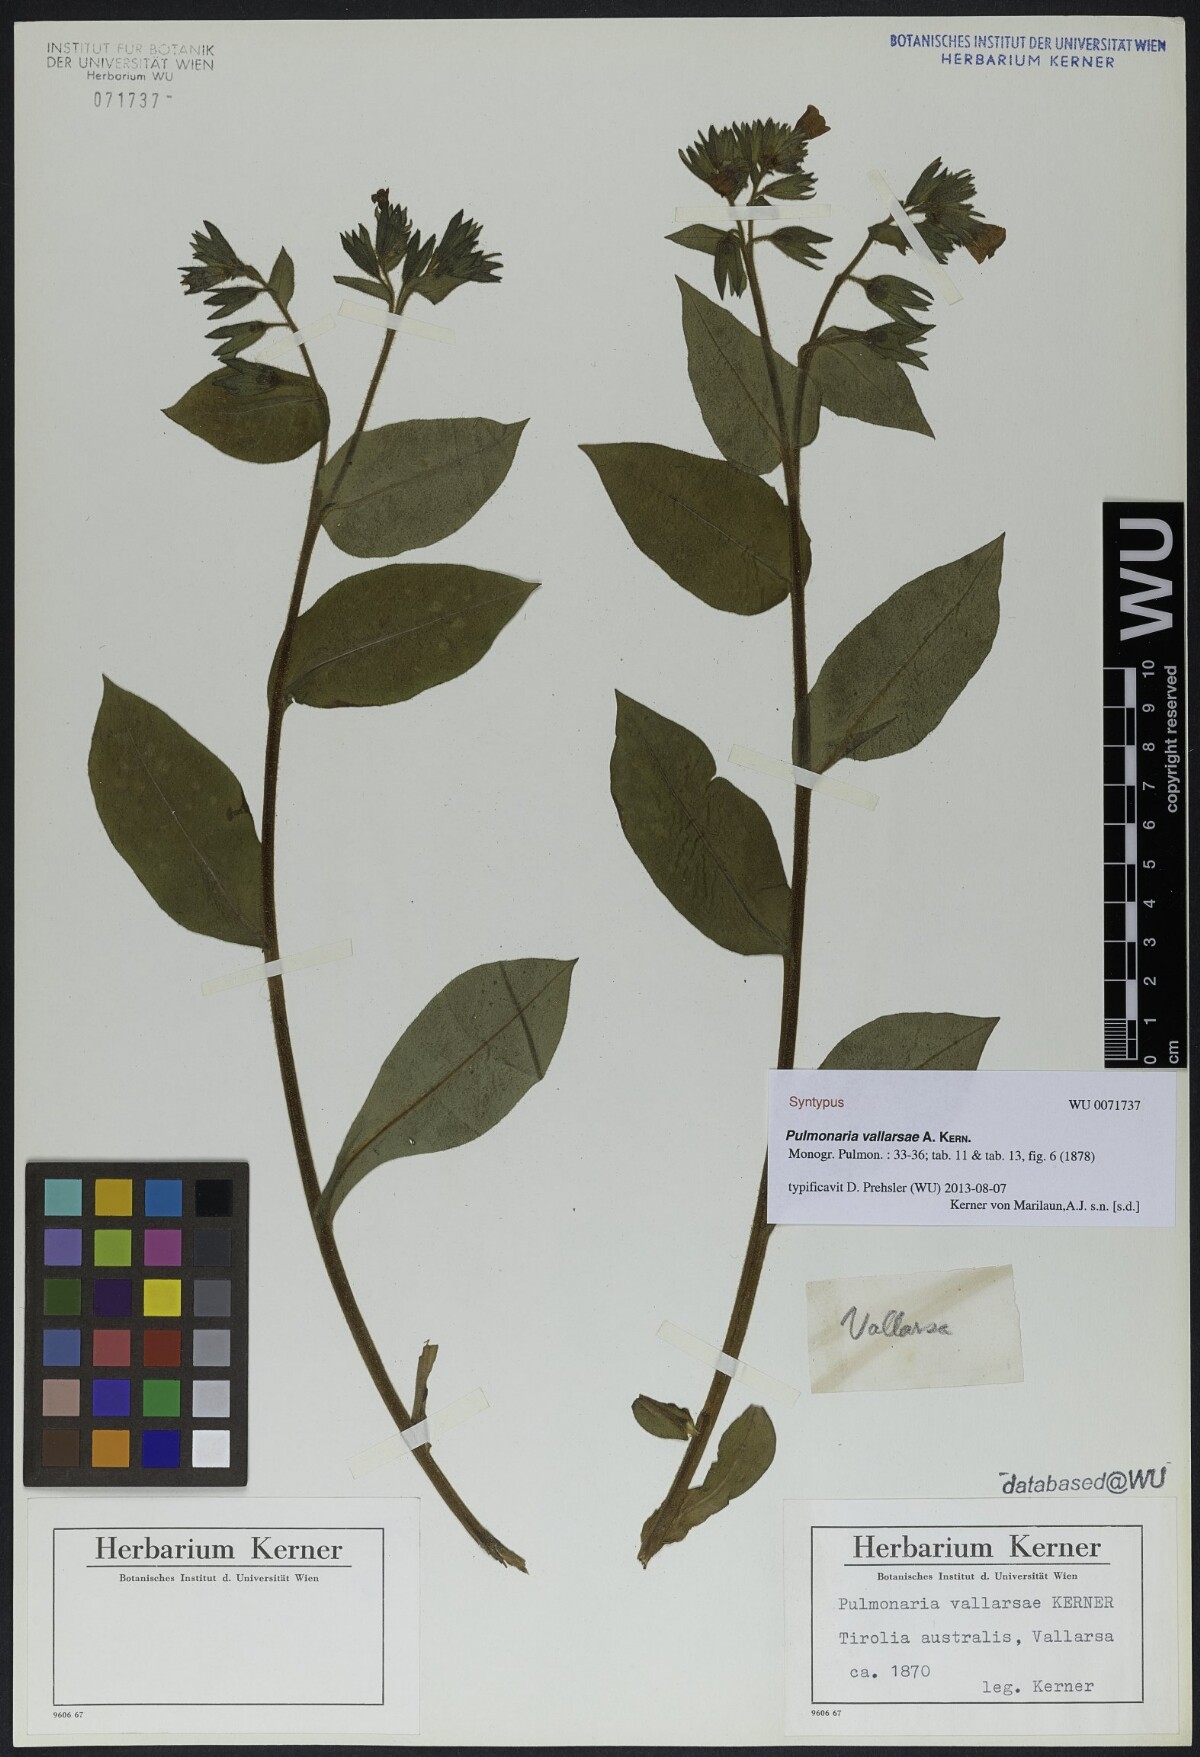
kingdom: Plantae
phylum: Tracheophyta
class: Magnoliopsida
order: Boraginales
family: Boraginaceae
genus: Pulmonaria
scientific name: Pulmonaria hirta
